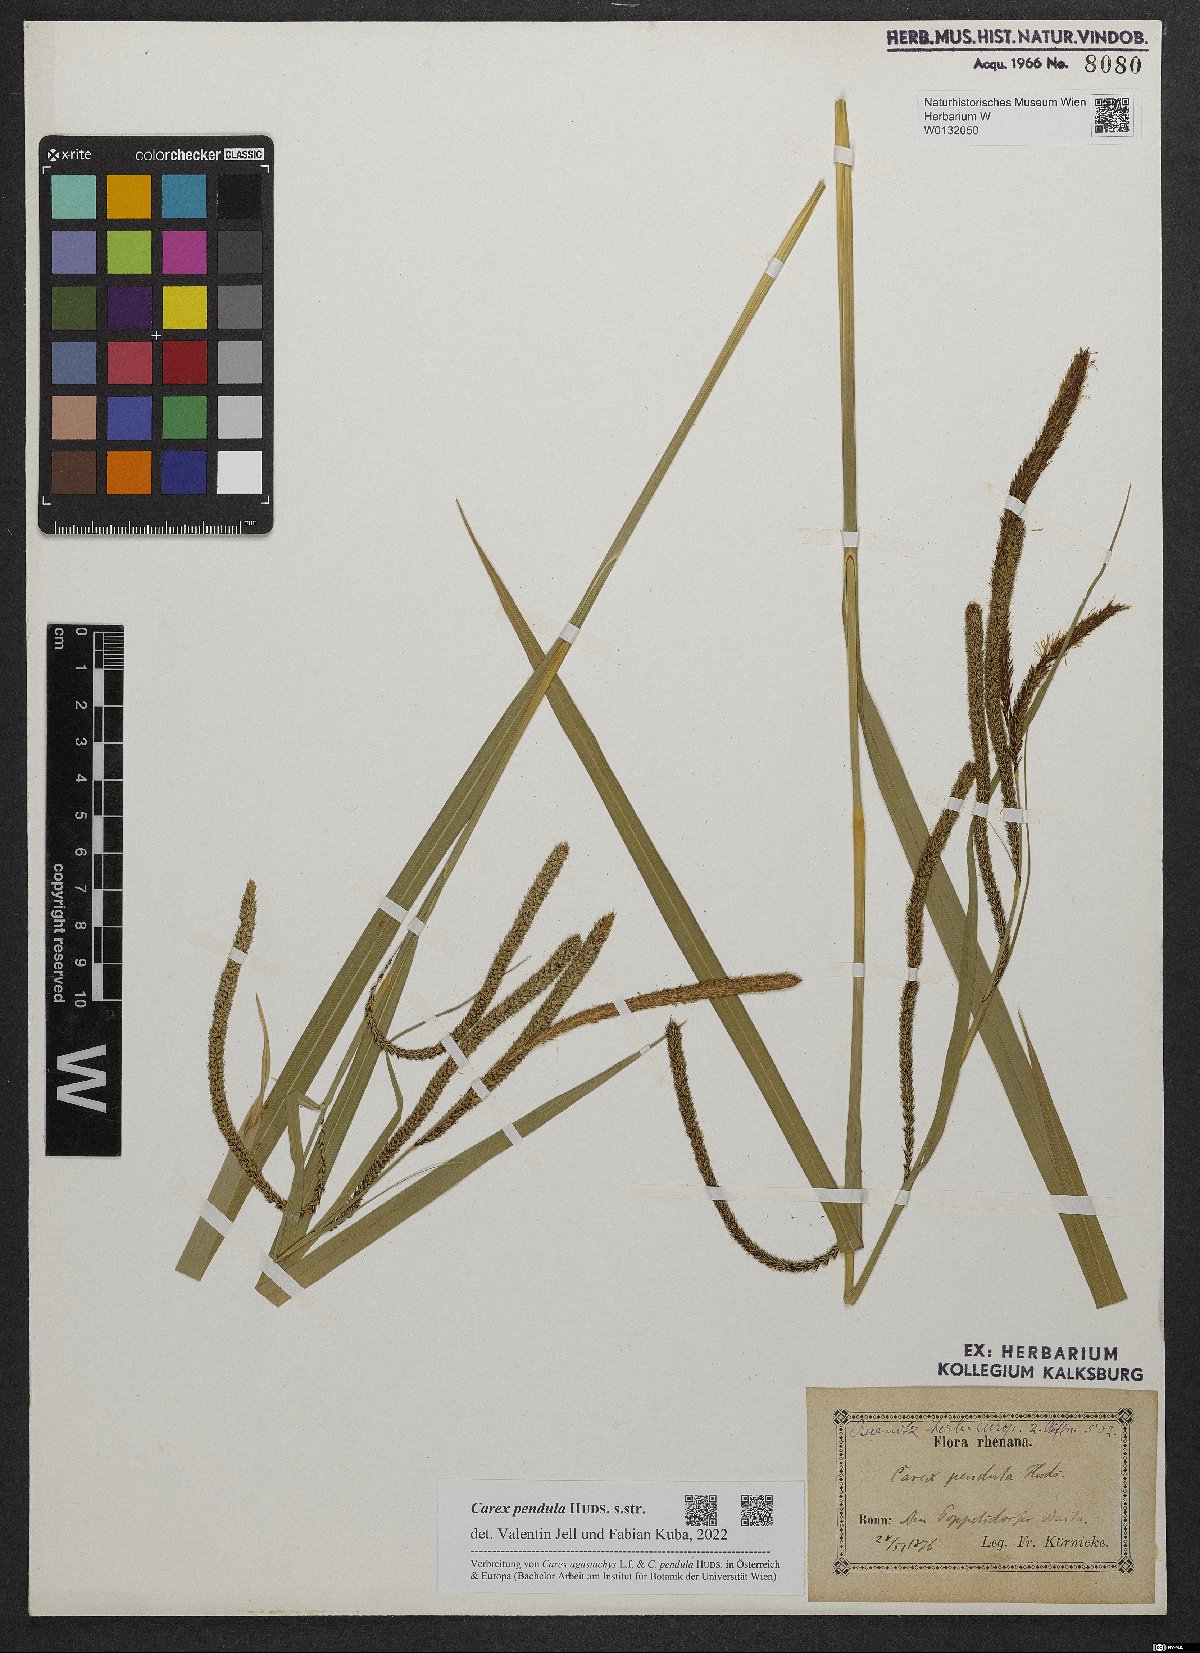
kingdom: Plantae
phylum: Tracheophyta
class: Liliopsida
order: Poales
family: Cyperaceae
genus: Carex
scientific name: Carex pendula
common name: Pendulous sedge
